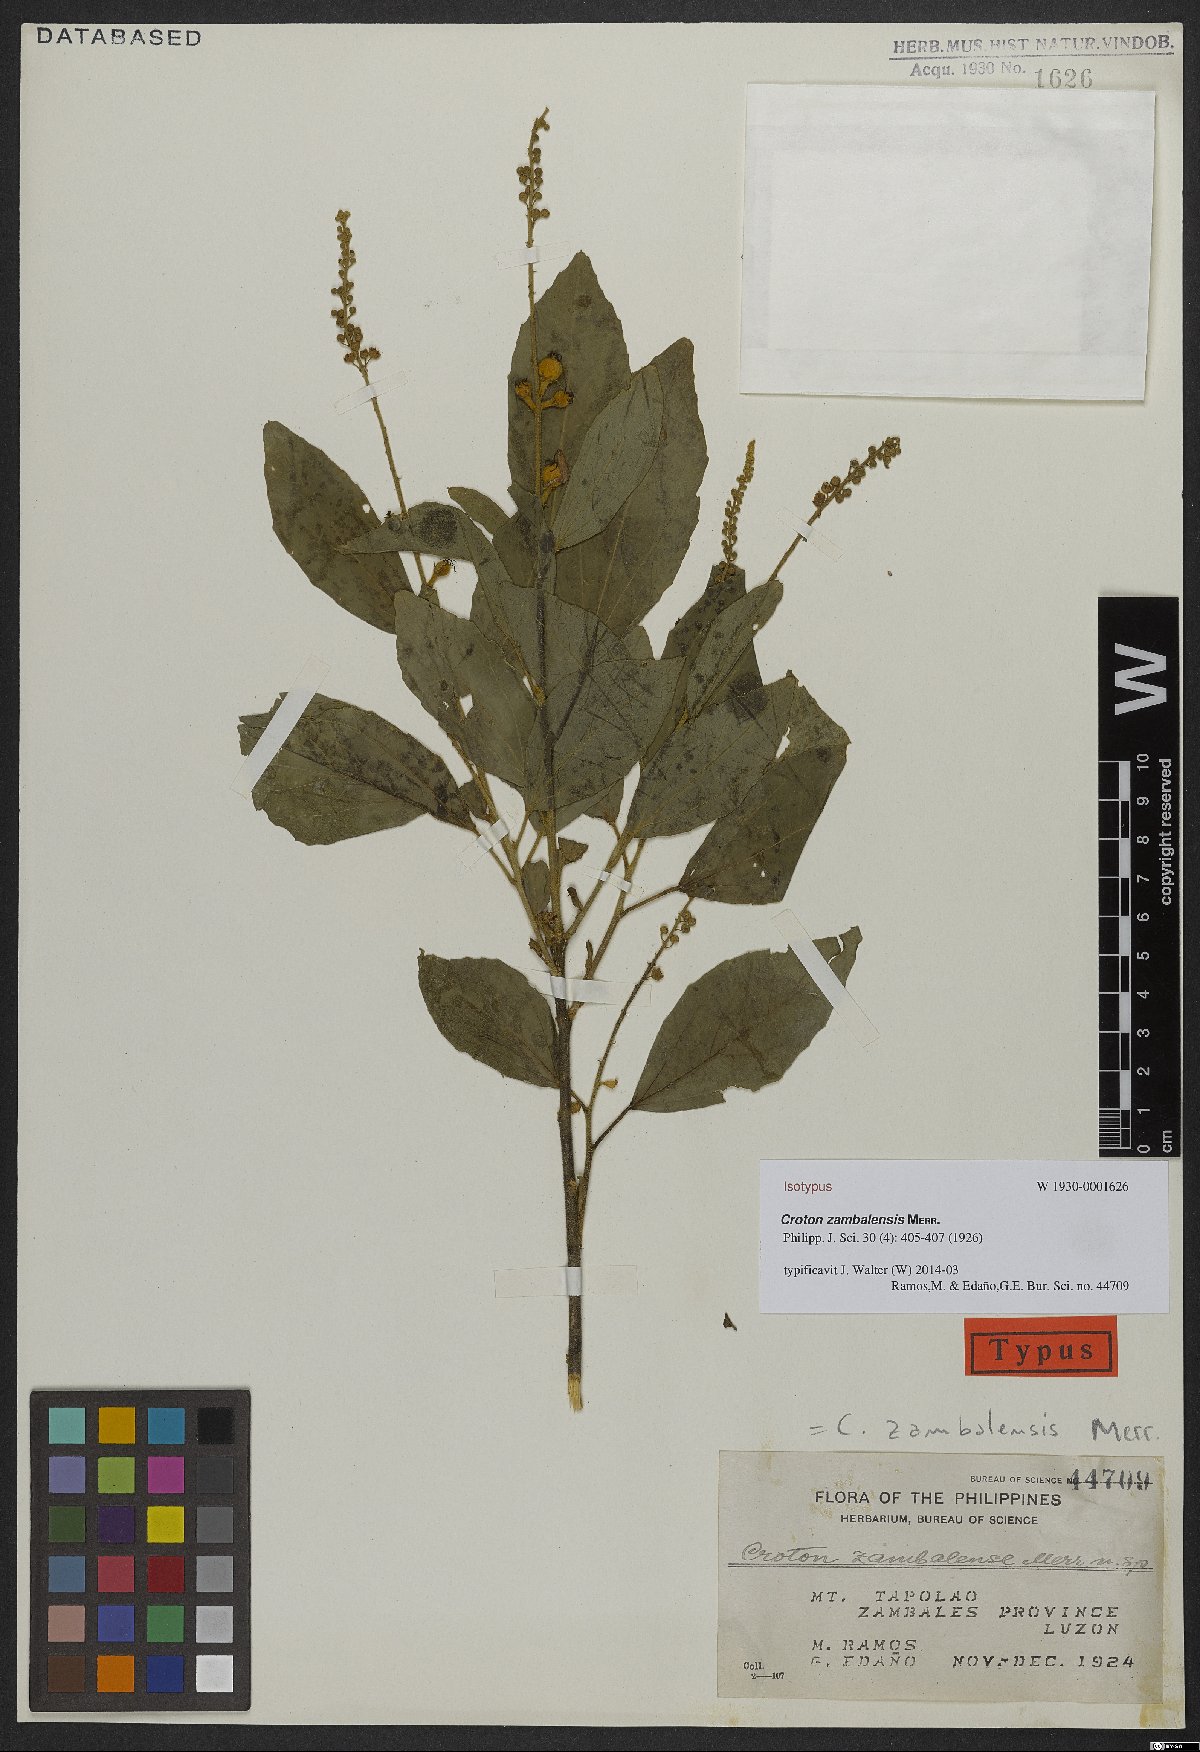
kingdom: Plantae
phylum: Tracheophyta
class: Magnoliopsida
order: Malpighiales
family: Euphorbiaceae
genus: Croton
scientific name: Croton zambalensis
